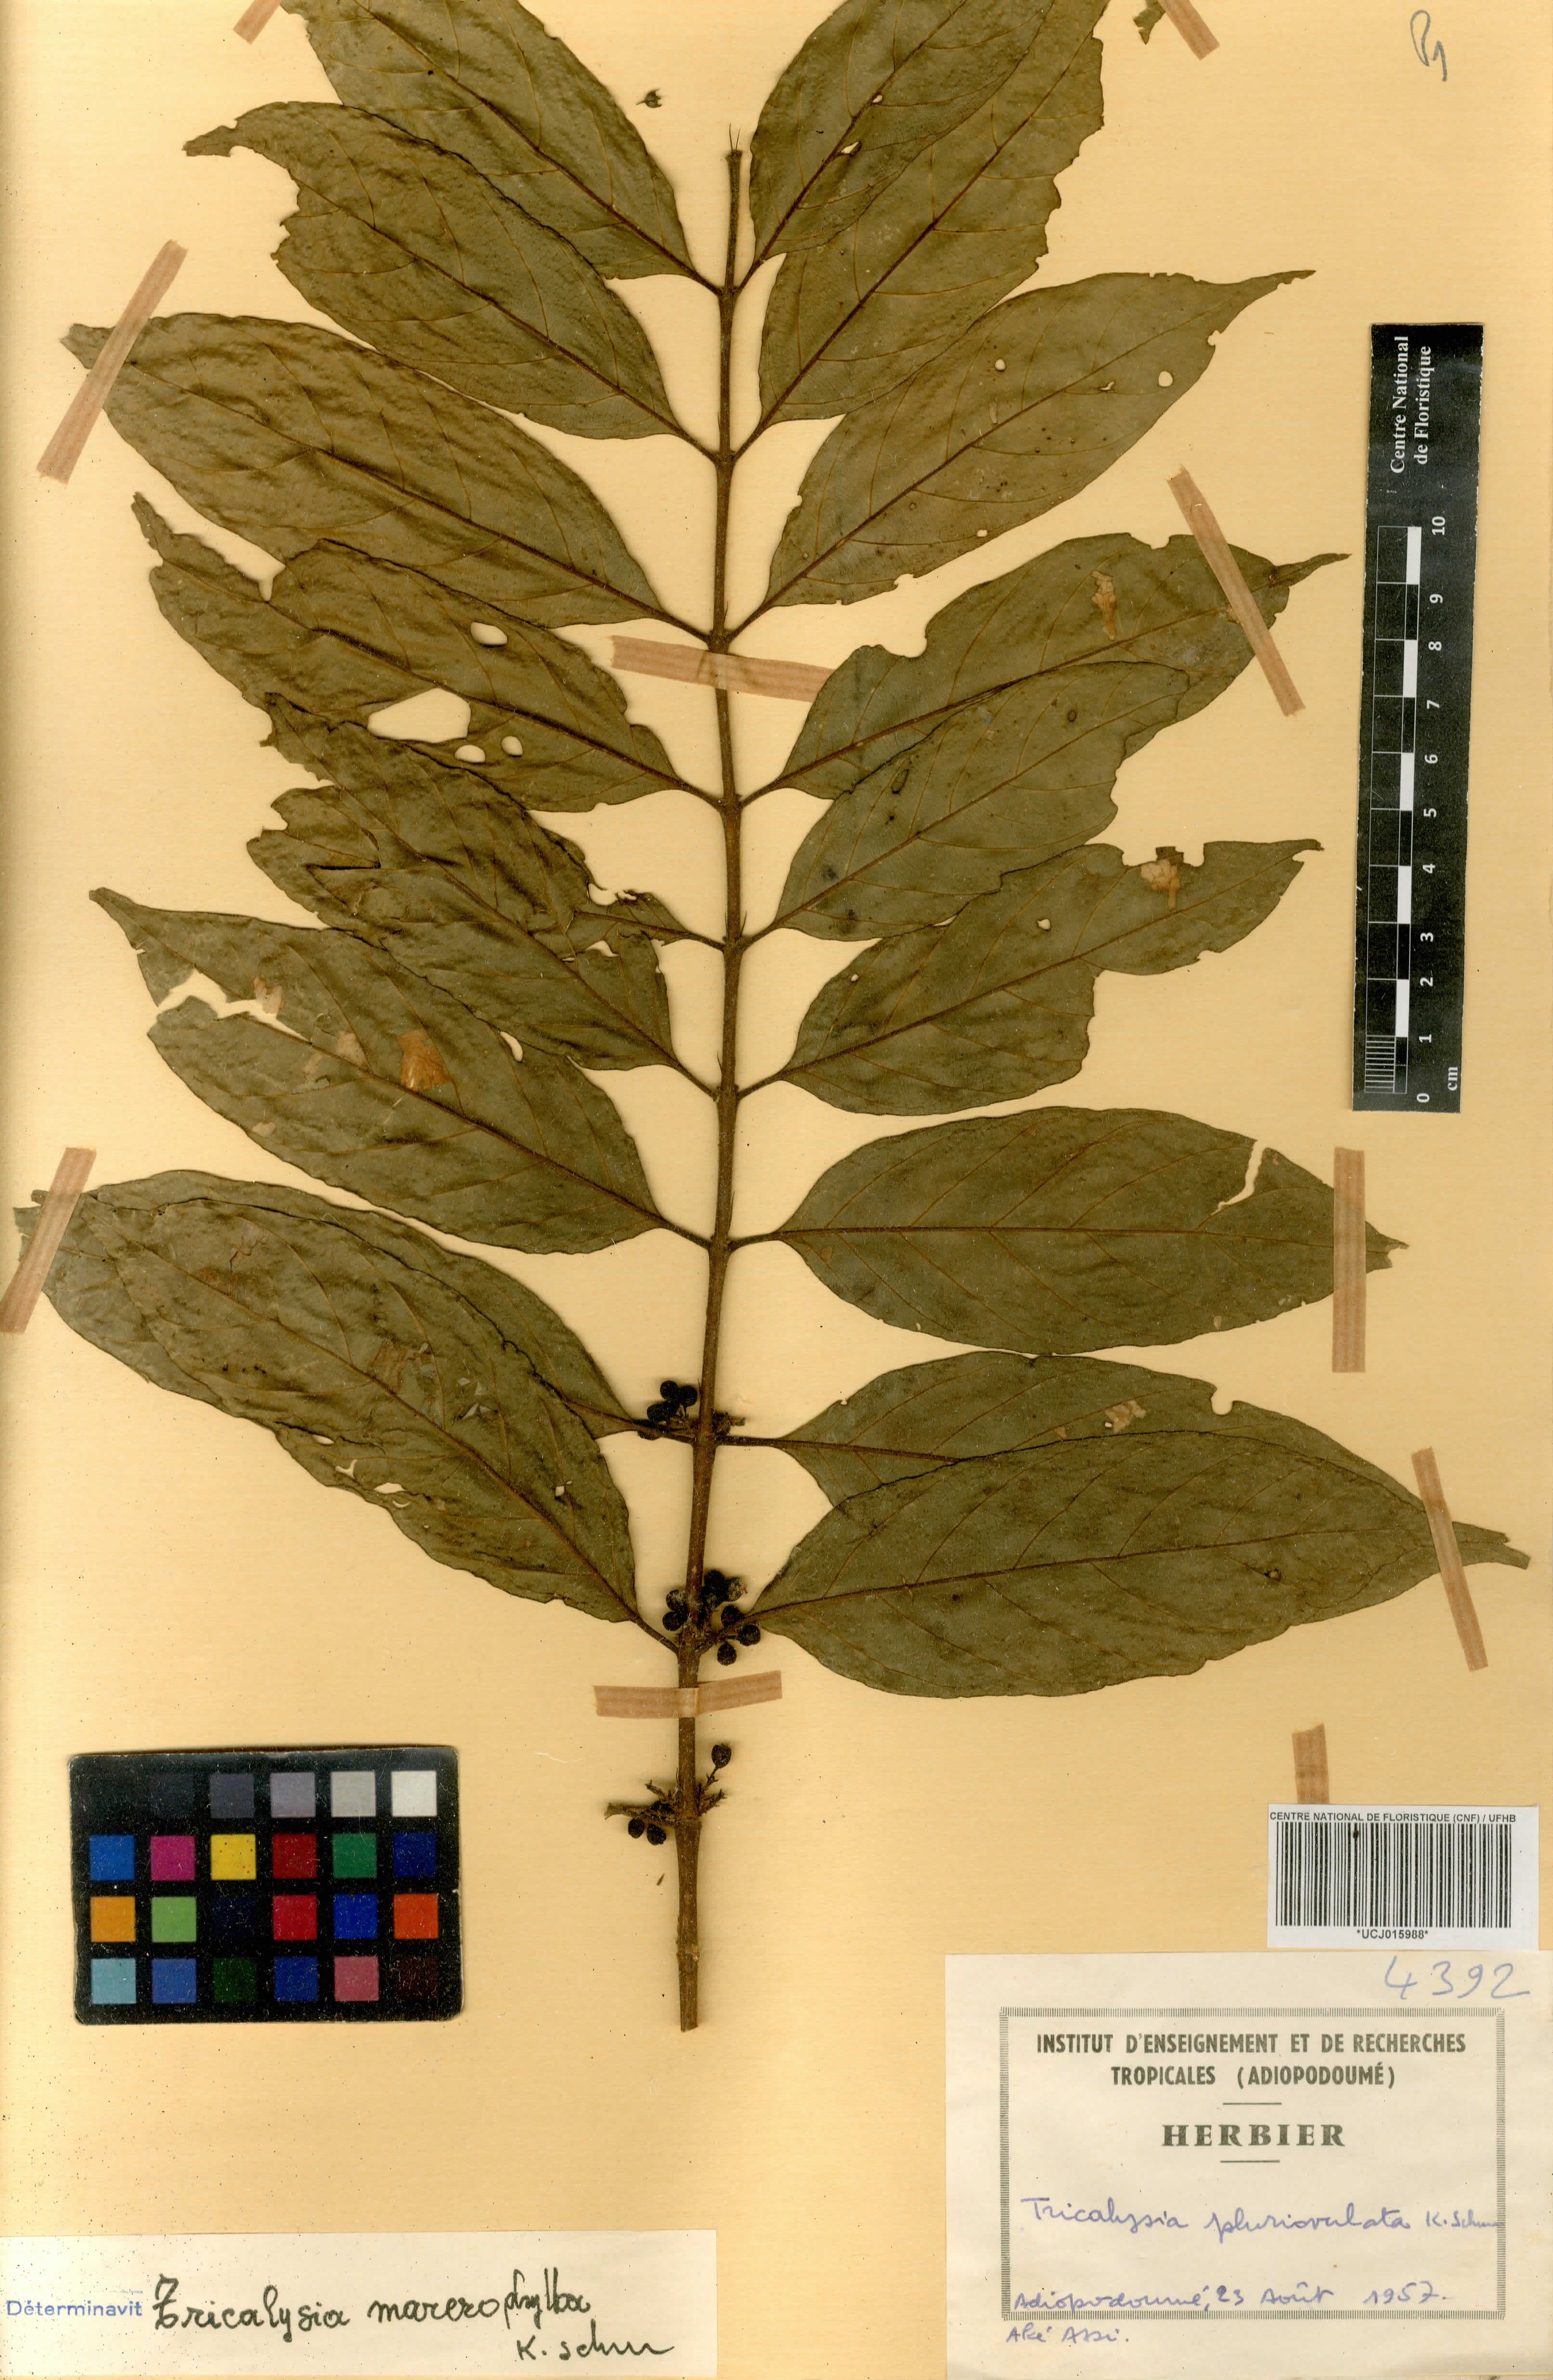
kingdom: Plantae
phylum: Tracheophyta
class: Magnoliopsida
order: Gentianales
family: Rubiaceae
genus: Tricalysia
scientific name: Tricalysia pluriovulata
